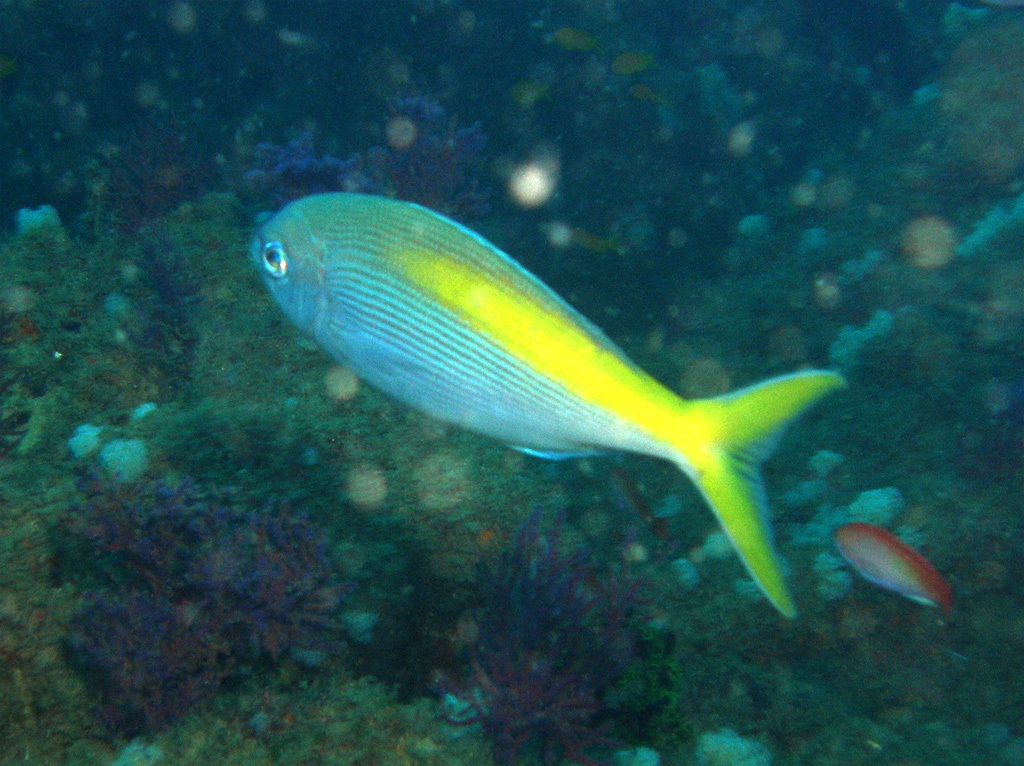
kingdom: Animalia
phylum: Chordata
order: Perciformes
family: Lutjanidae
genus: Paracaesio
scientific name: Paracaesio xanthura
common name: Yellowtail blue snapper
